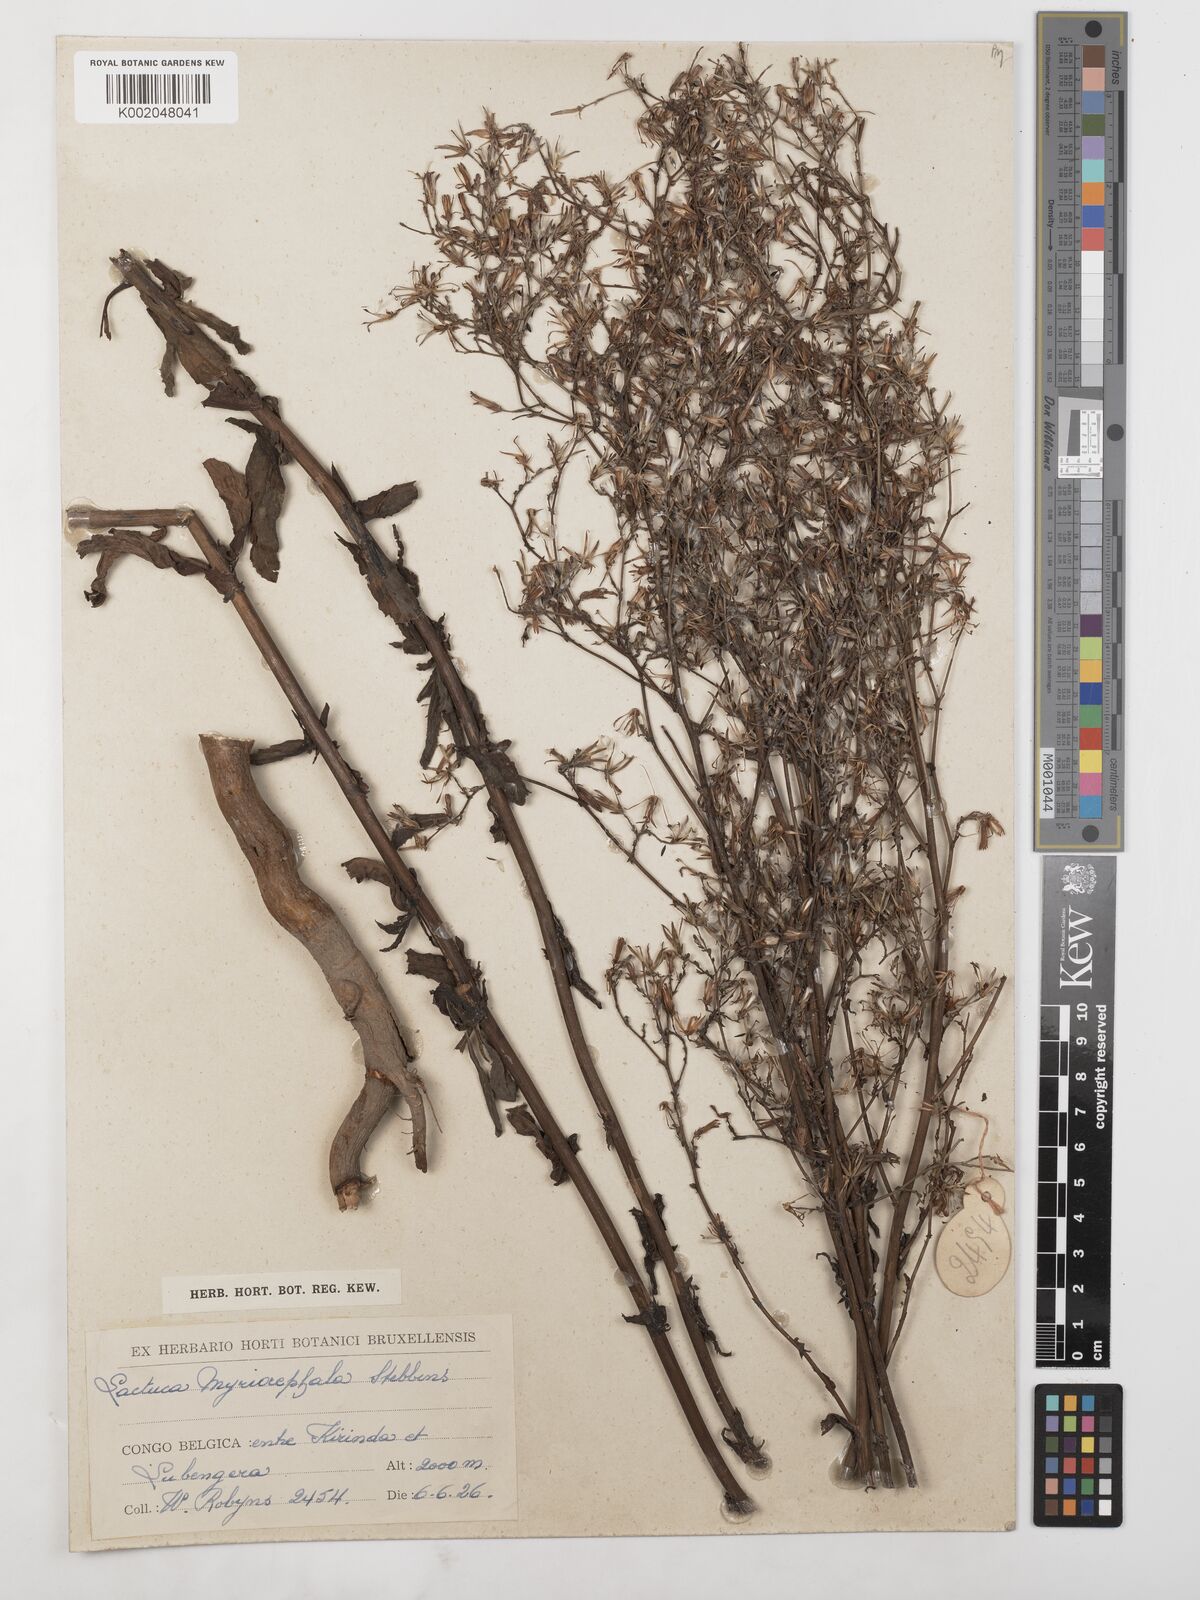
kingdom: Plantae
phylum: Tracheophyta
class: Magnoliopsida
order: Asterales
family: Asteraceae
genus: Lactuca
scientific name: Lactuca inermis
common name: Wild lettuce
